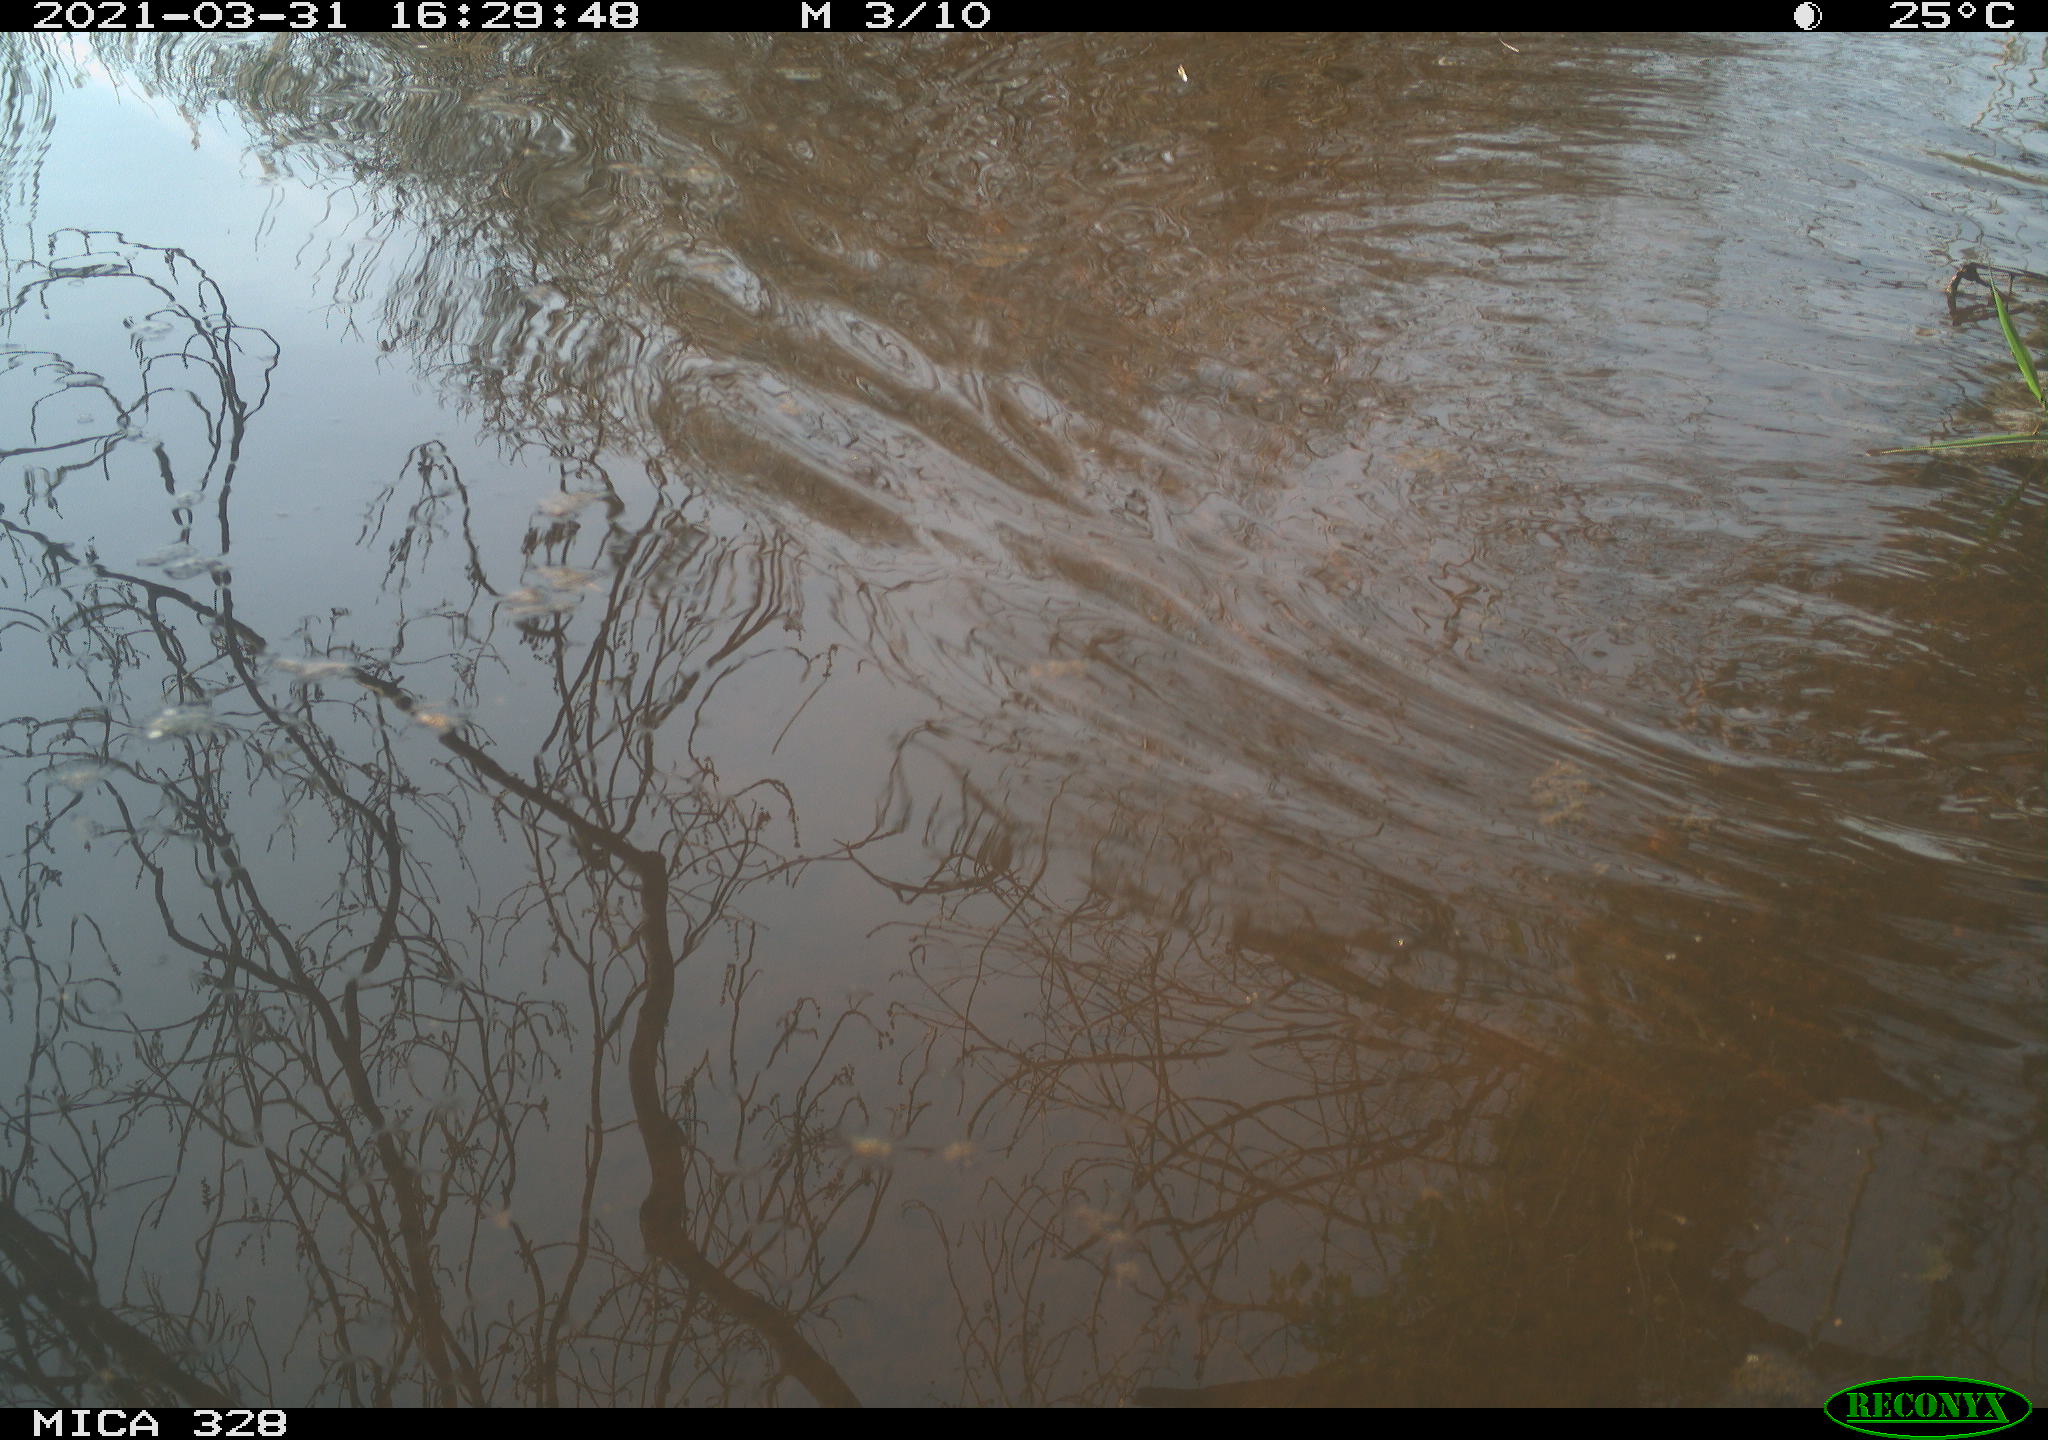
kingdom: Animalia
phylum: Chordata
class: Mammalia
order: Rodentia
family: Cricetidae
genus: Ondatra
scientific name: Ondatra zibethicus
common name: Muskrat
